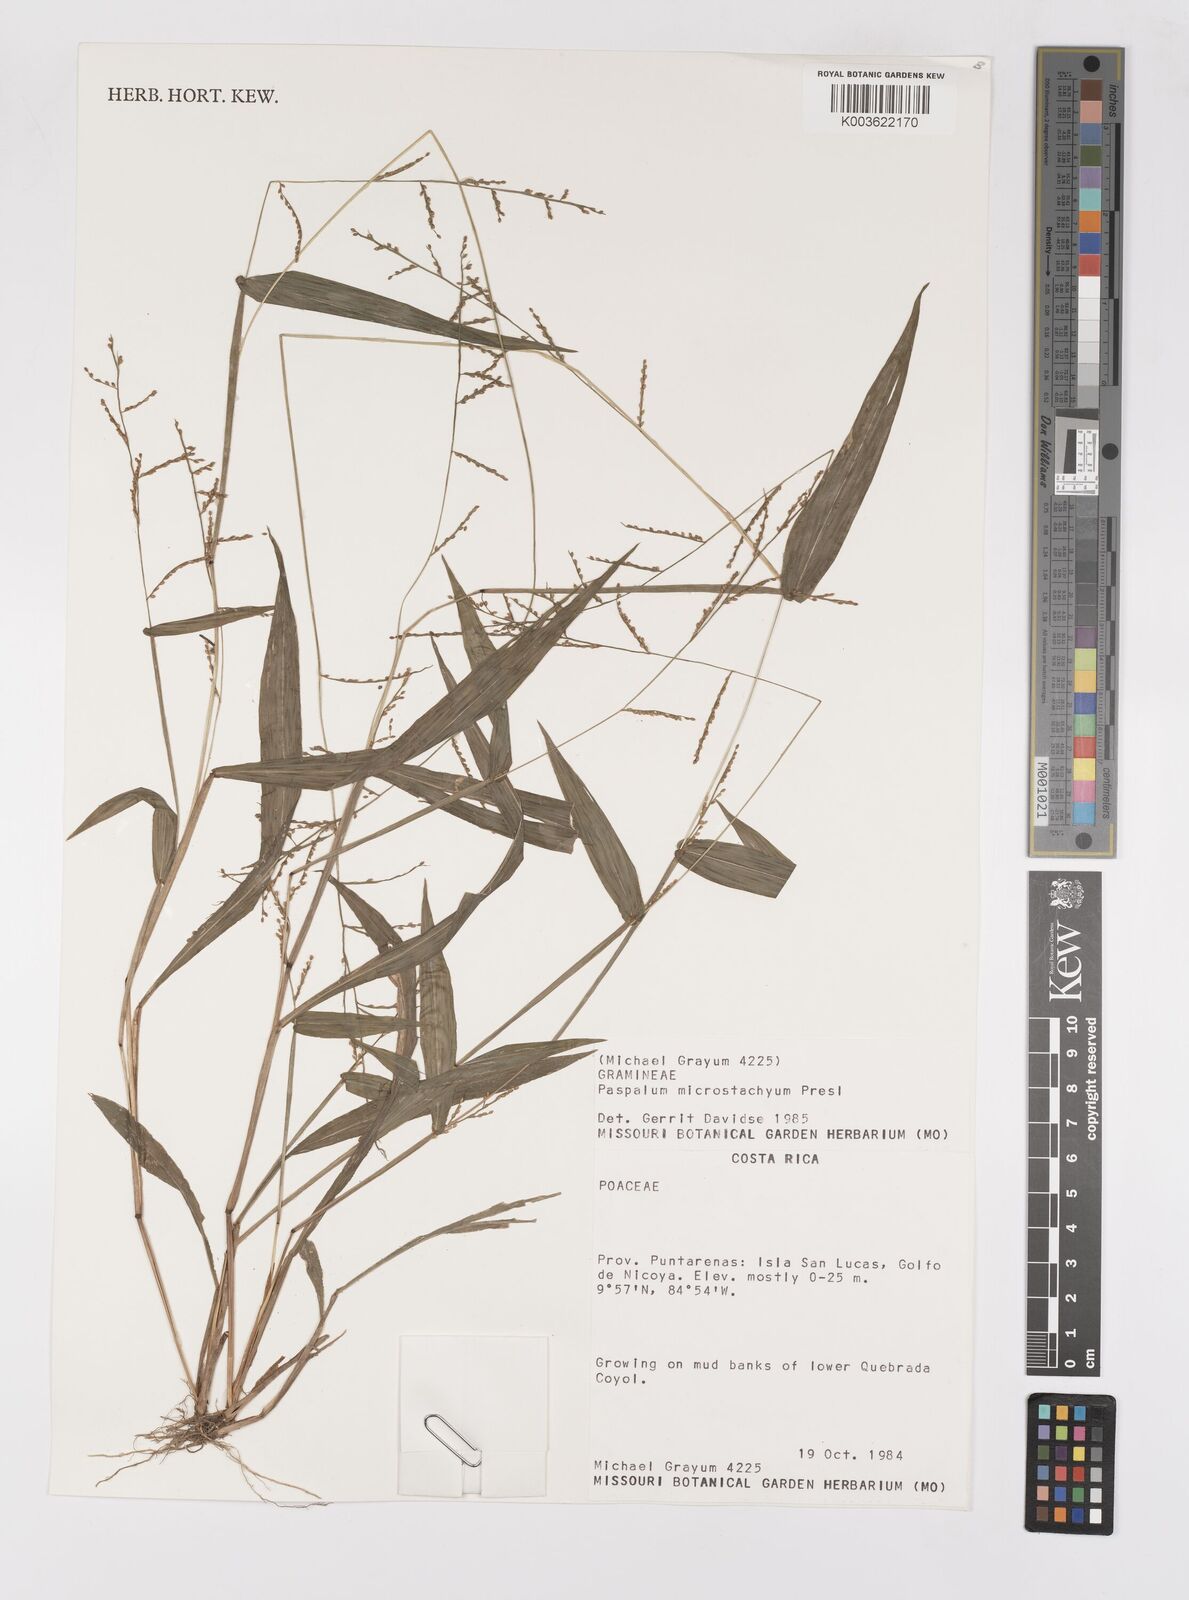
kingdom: Plantae
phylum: Tracheophyta
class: Liliopsida
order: Poales
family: Poaceae
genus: Paspalum
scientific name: Paspalum microstachyum
